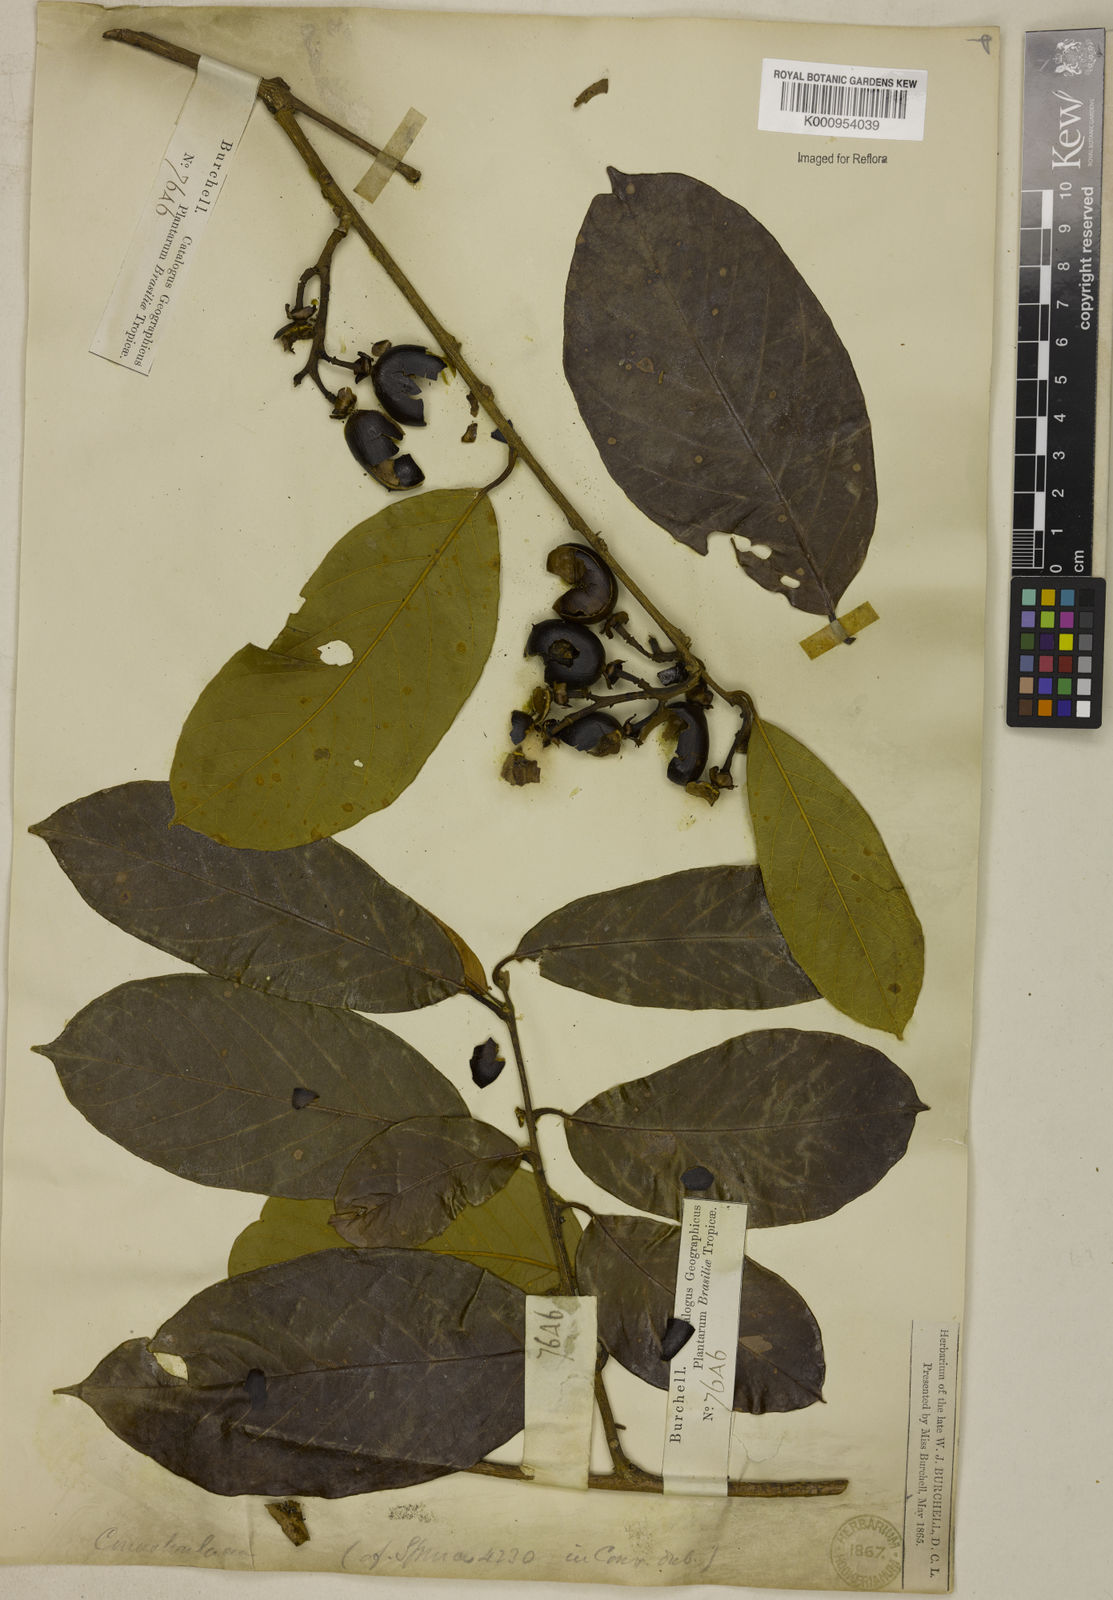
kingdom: Plantae
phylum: Tracheophyta
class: Magnoliopsida
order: Solanales
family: Convolvulaceae
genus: Maripa
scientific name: Maripa longifolia
